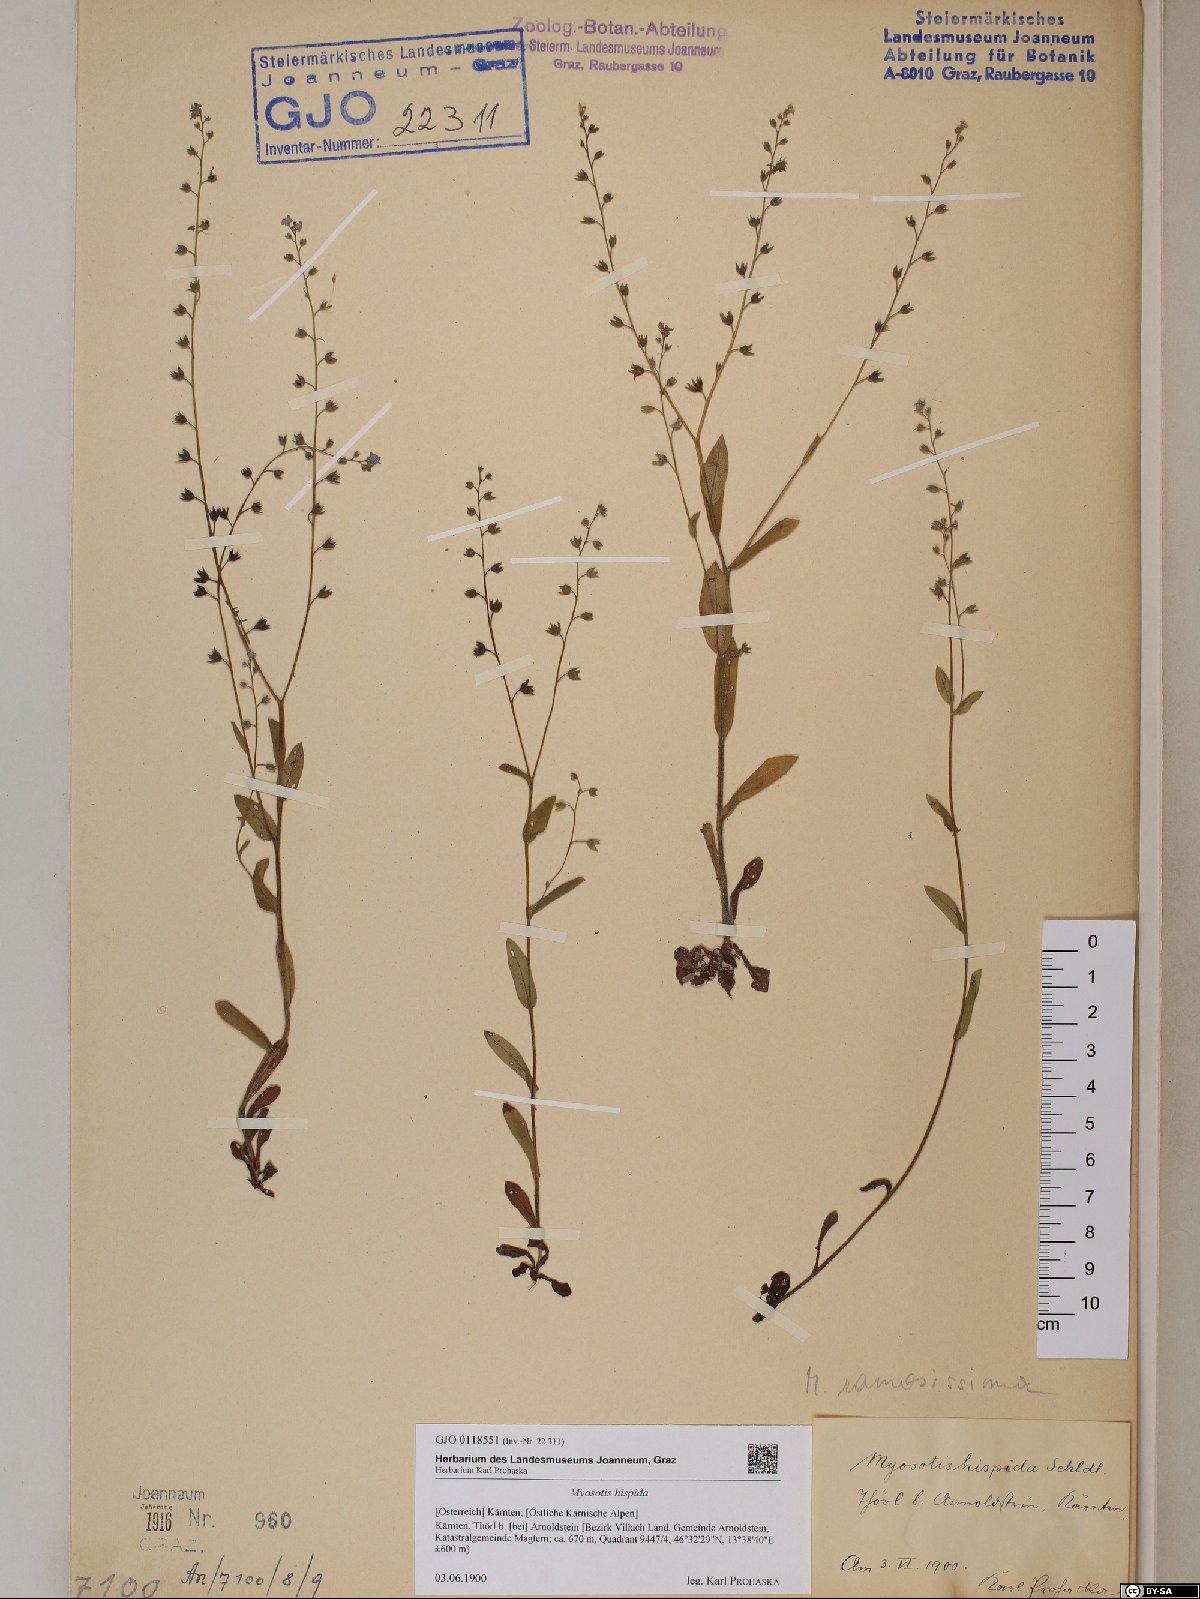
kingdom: Plantae
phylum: Tracheophyta
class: Magnoliopsida
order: Boraginales
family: Boraginaceae
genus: Myosotis
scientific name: Myosotis ramosissima
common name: Early forget-me-not
